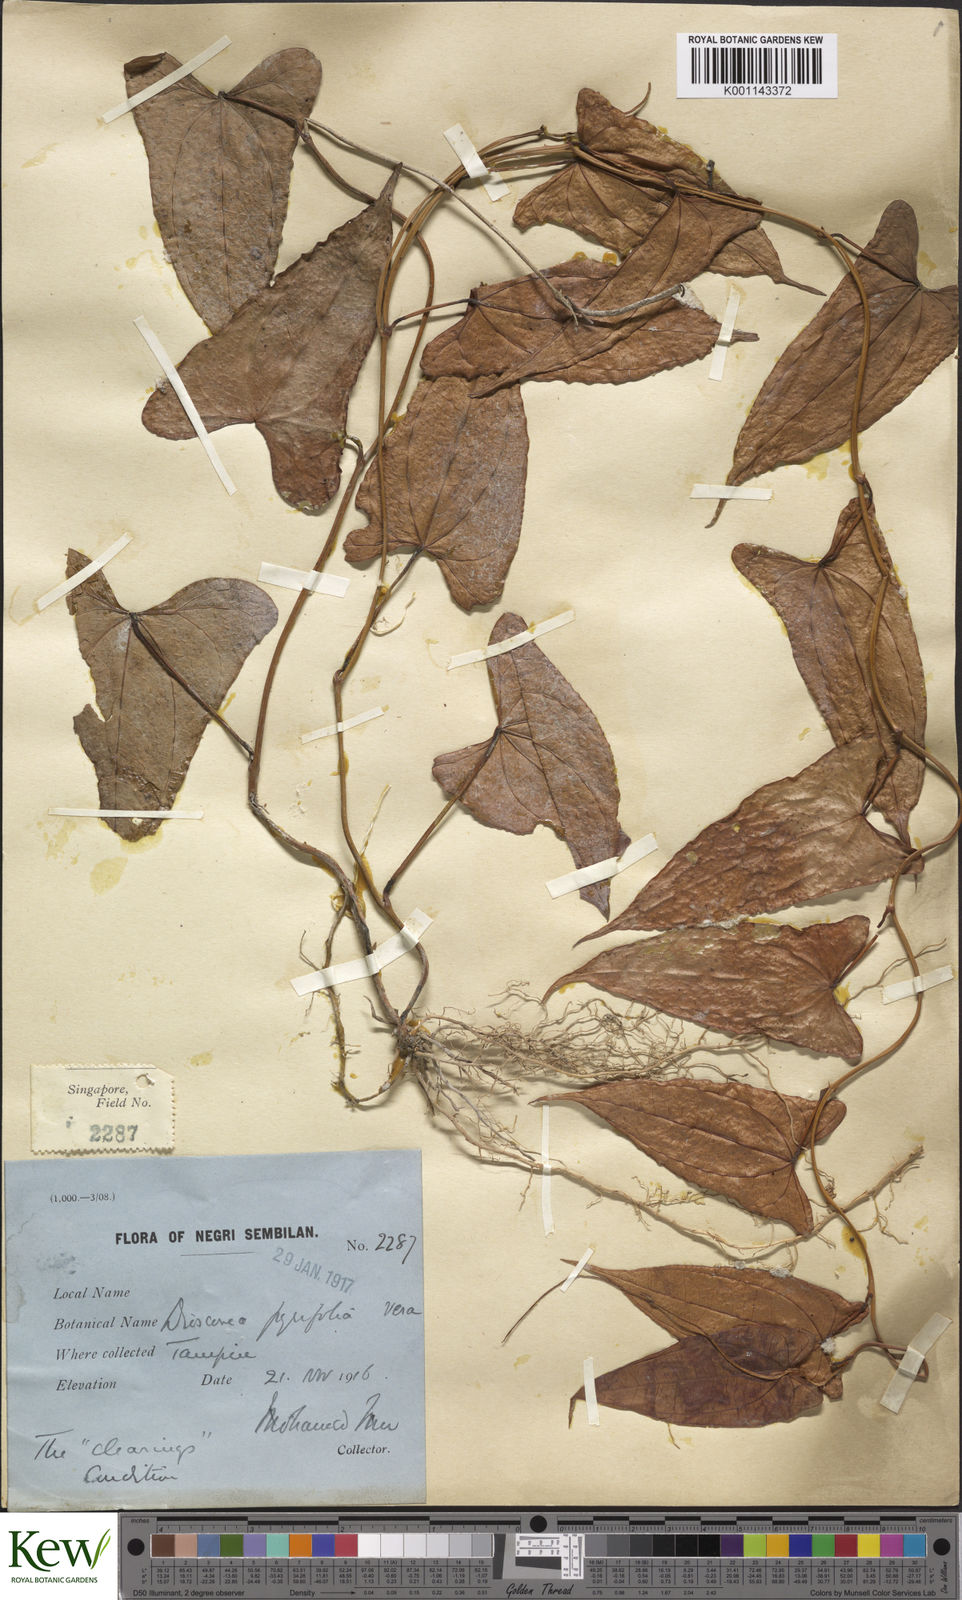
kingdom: Plantae
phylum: Tracheophyta
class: Liliopsida
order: Dioscoreales
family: Dioscoreaceae
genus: Dioscorea
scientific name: Dioscorea pyrifolia
